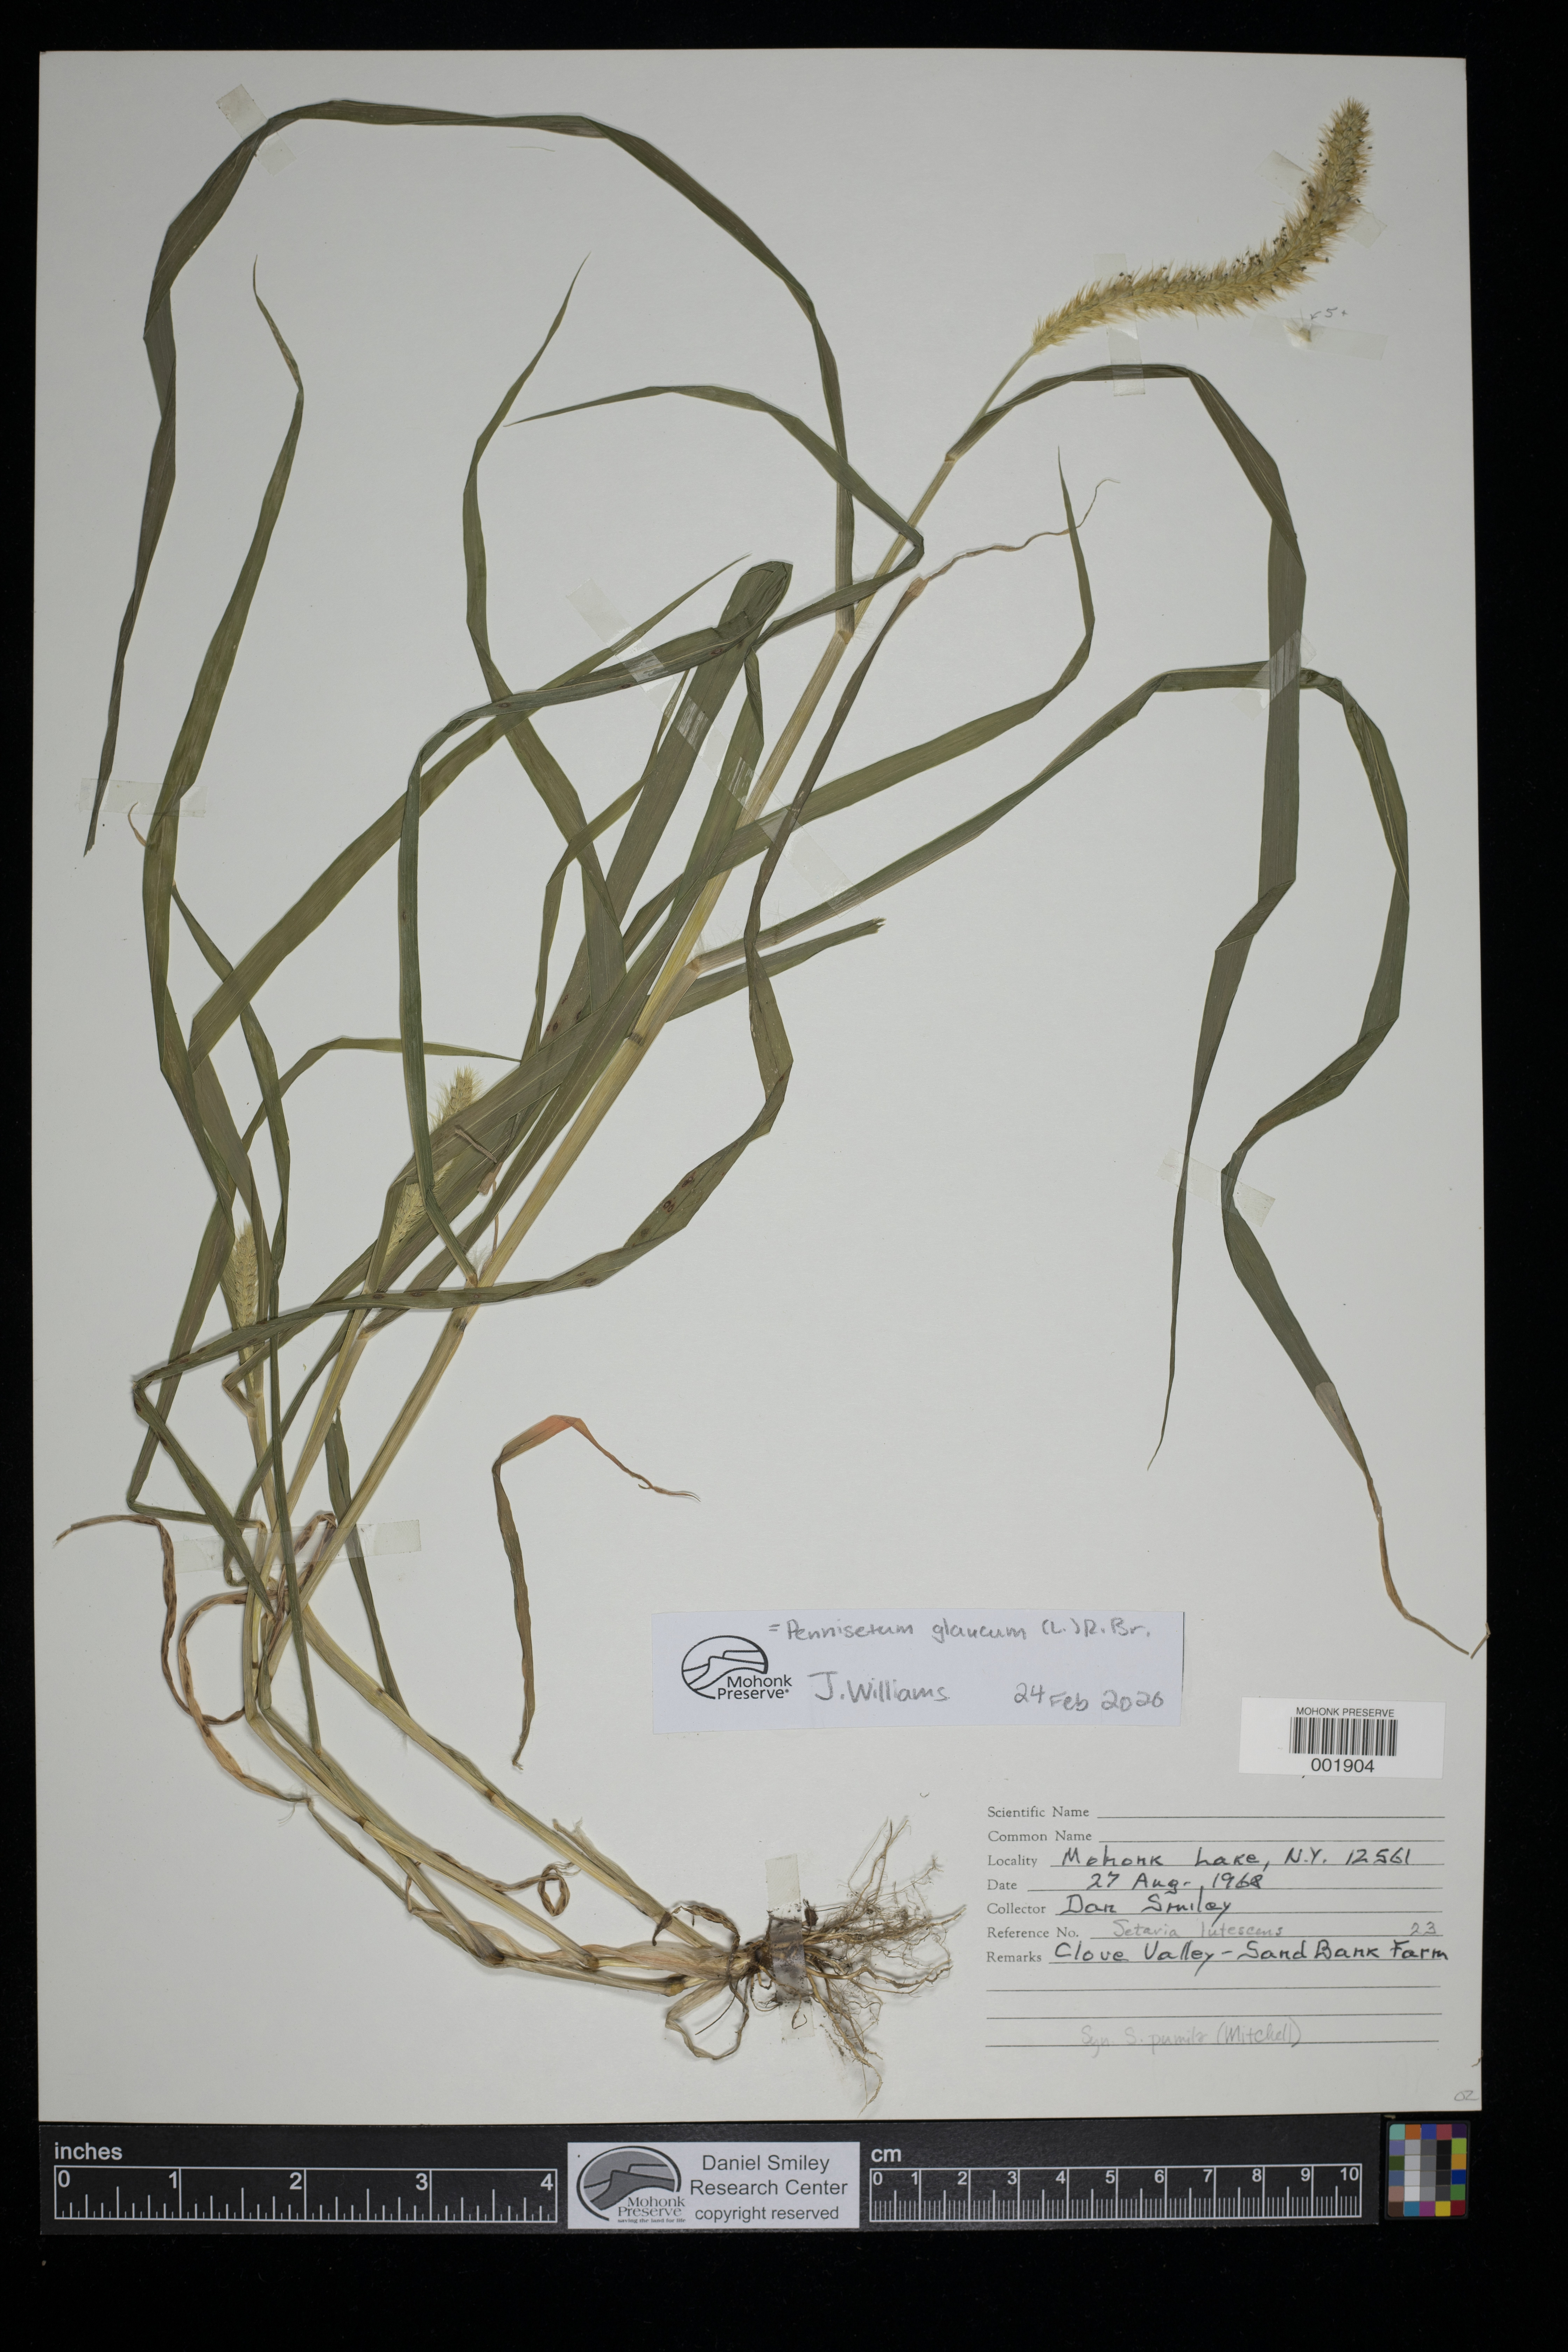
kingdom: Plantae
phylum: Tracheophyta
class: Liliopsida
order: Poales
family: Poaceae
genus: Cenchrus
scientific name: Cenchrus americanus
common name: Pearl millet
